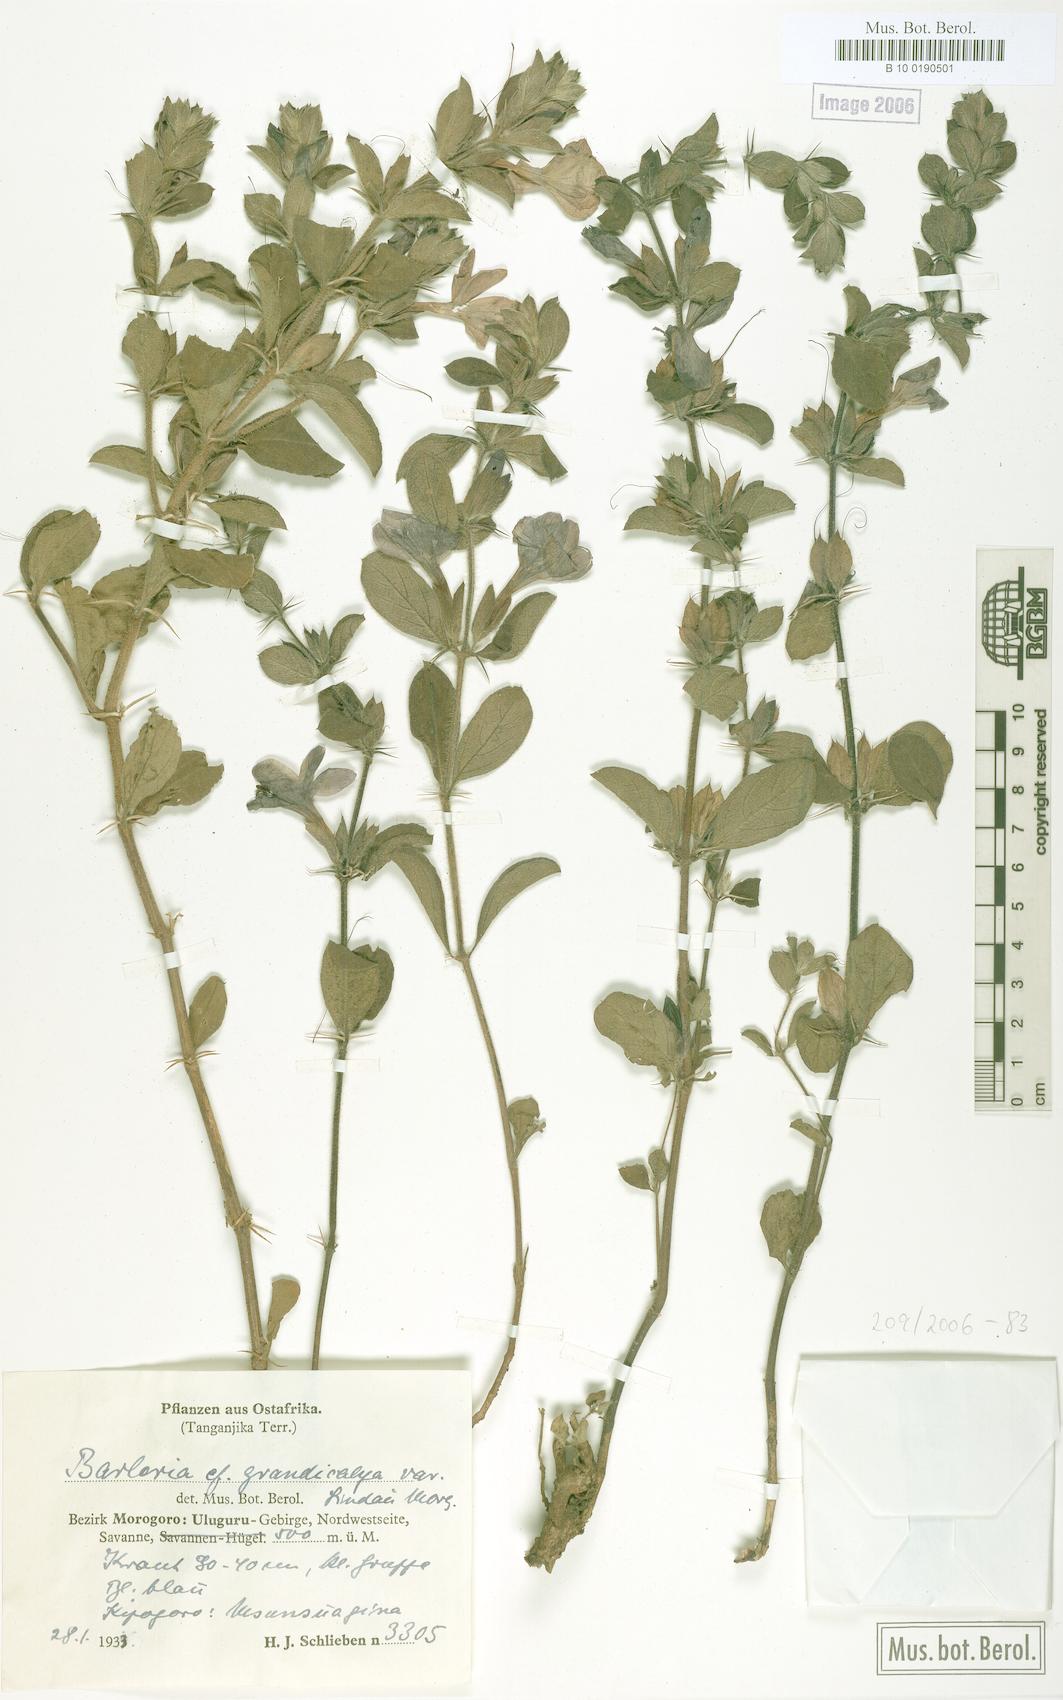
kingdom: Plantae
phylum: Tracheophyta
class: Magnoliopsida
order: Lamiales
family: Acanthaceae
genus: Barleria
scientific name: Barleria grandicalyx
